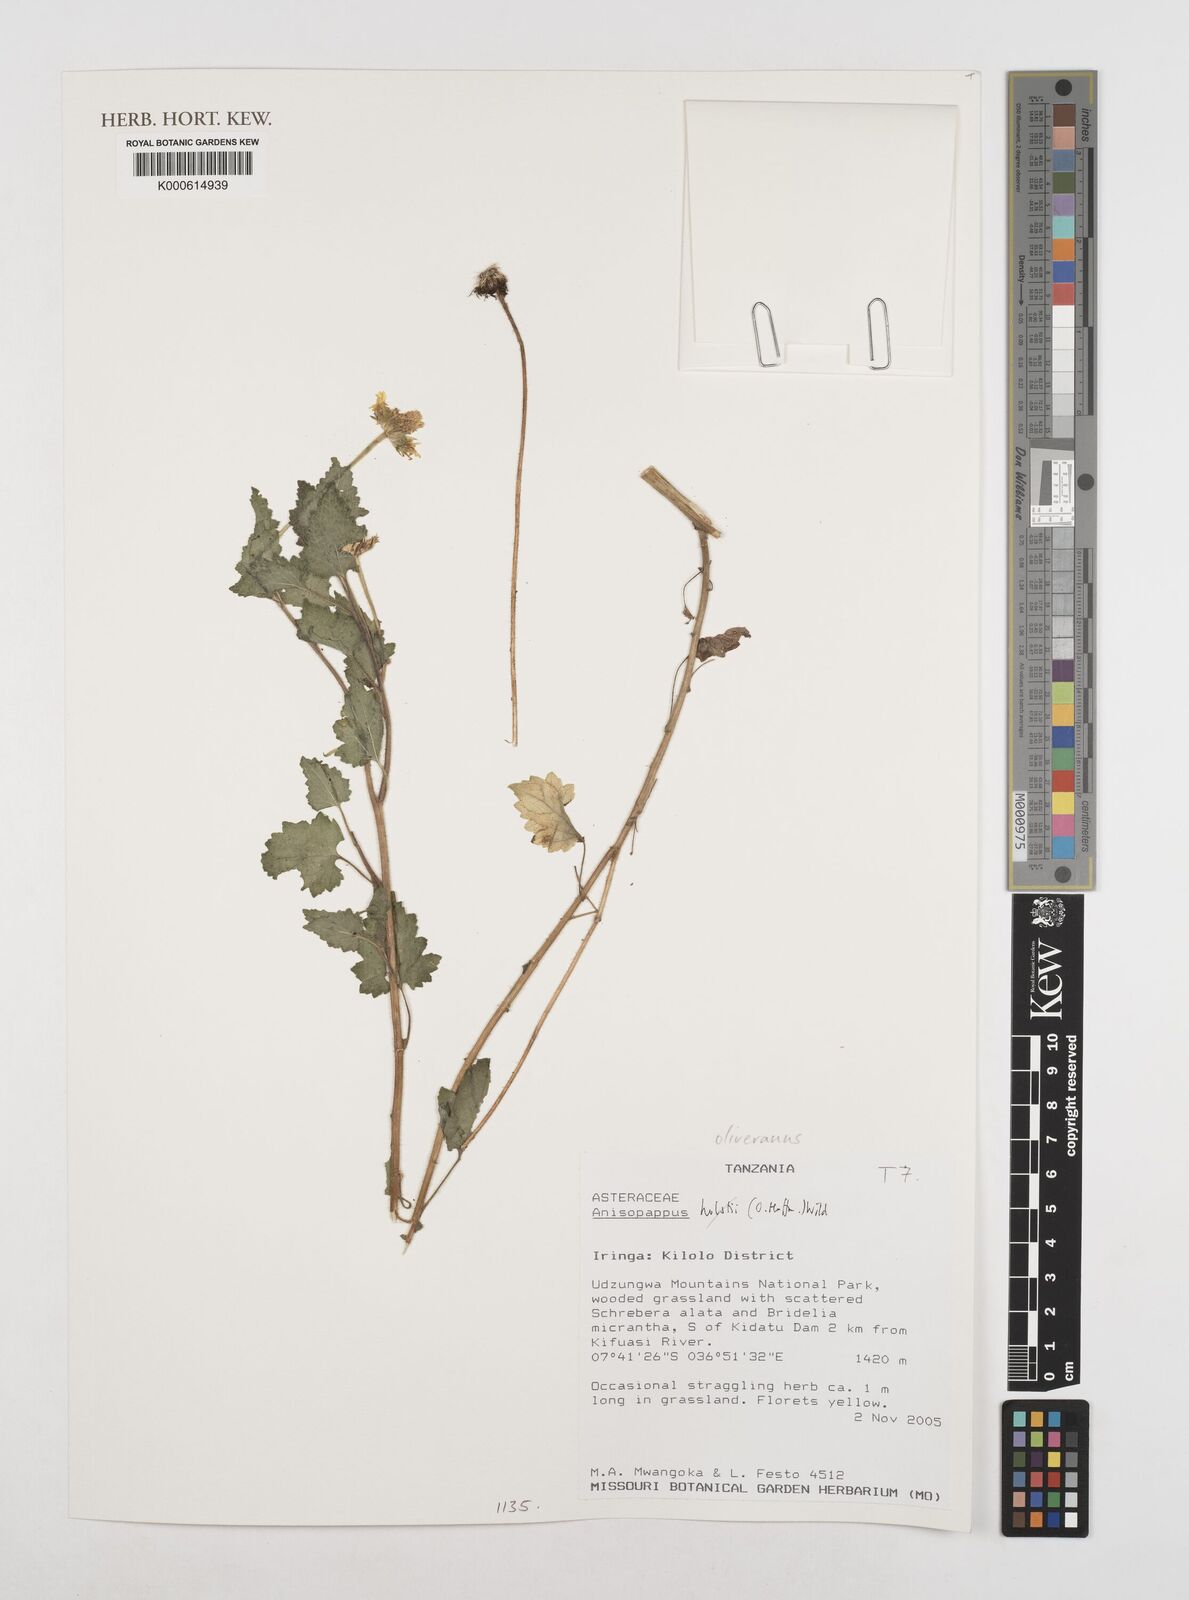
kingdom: Plantae
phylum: Tracheophyta
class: Magnoliopsida
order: Asterales
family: Asteraceae
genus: Anisopappus
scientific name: Anisopappus holstii
